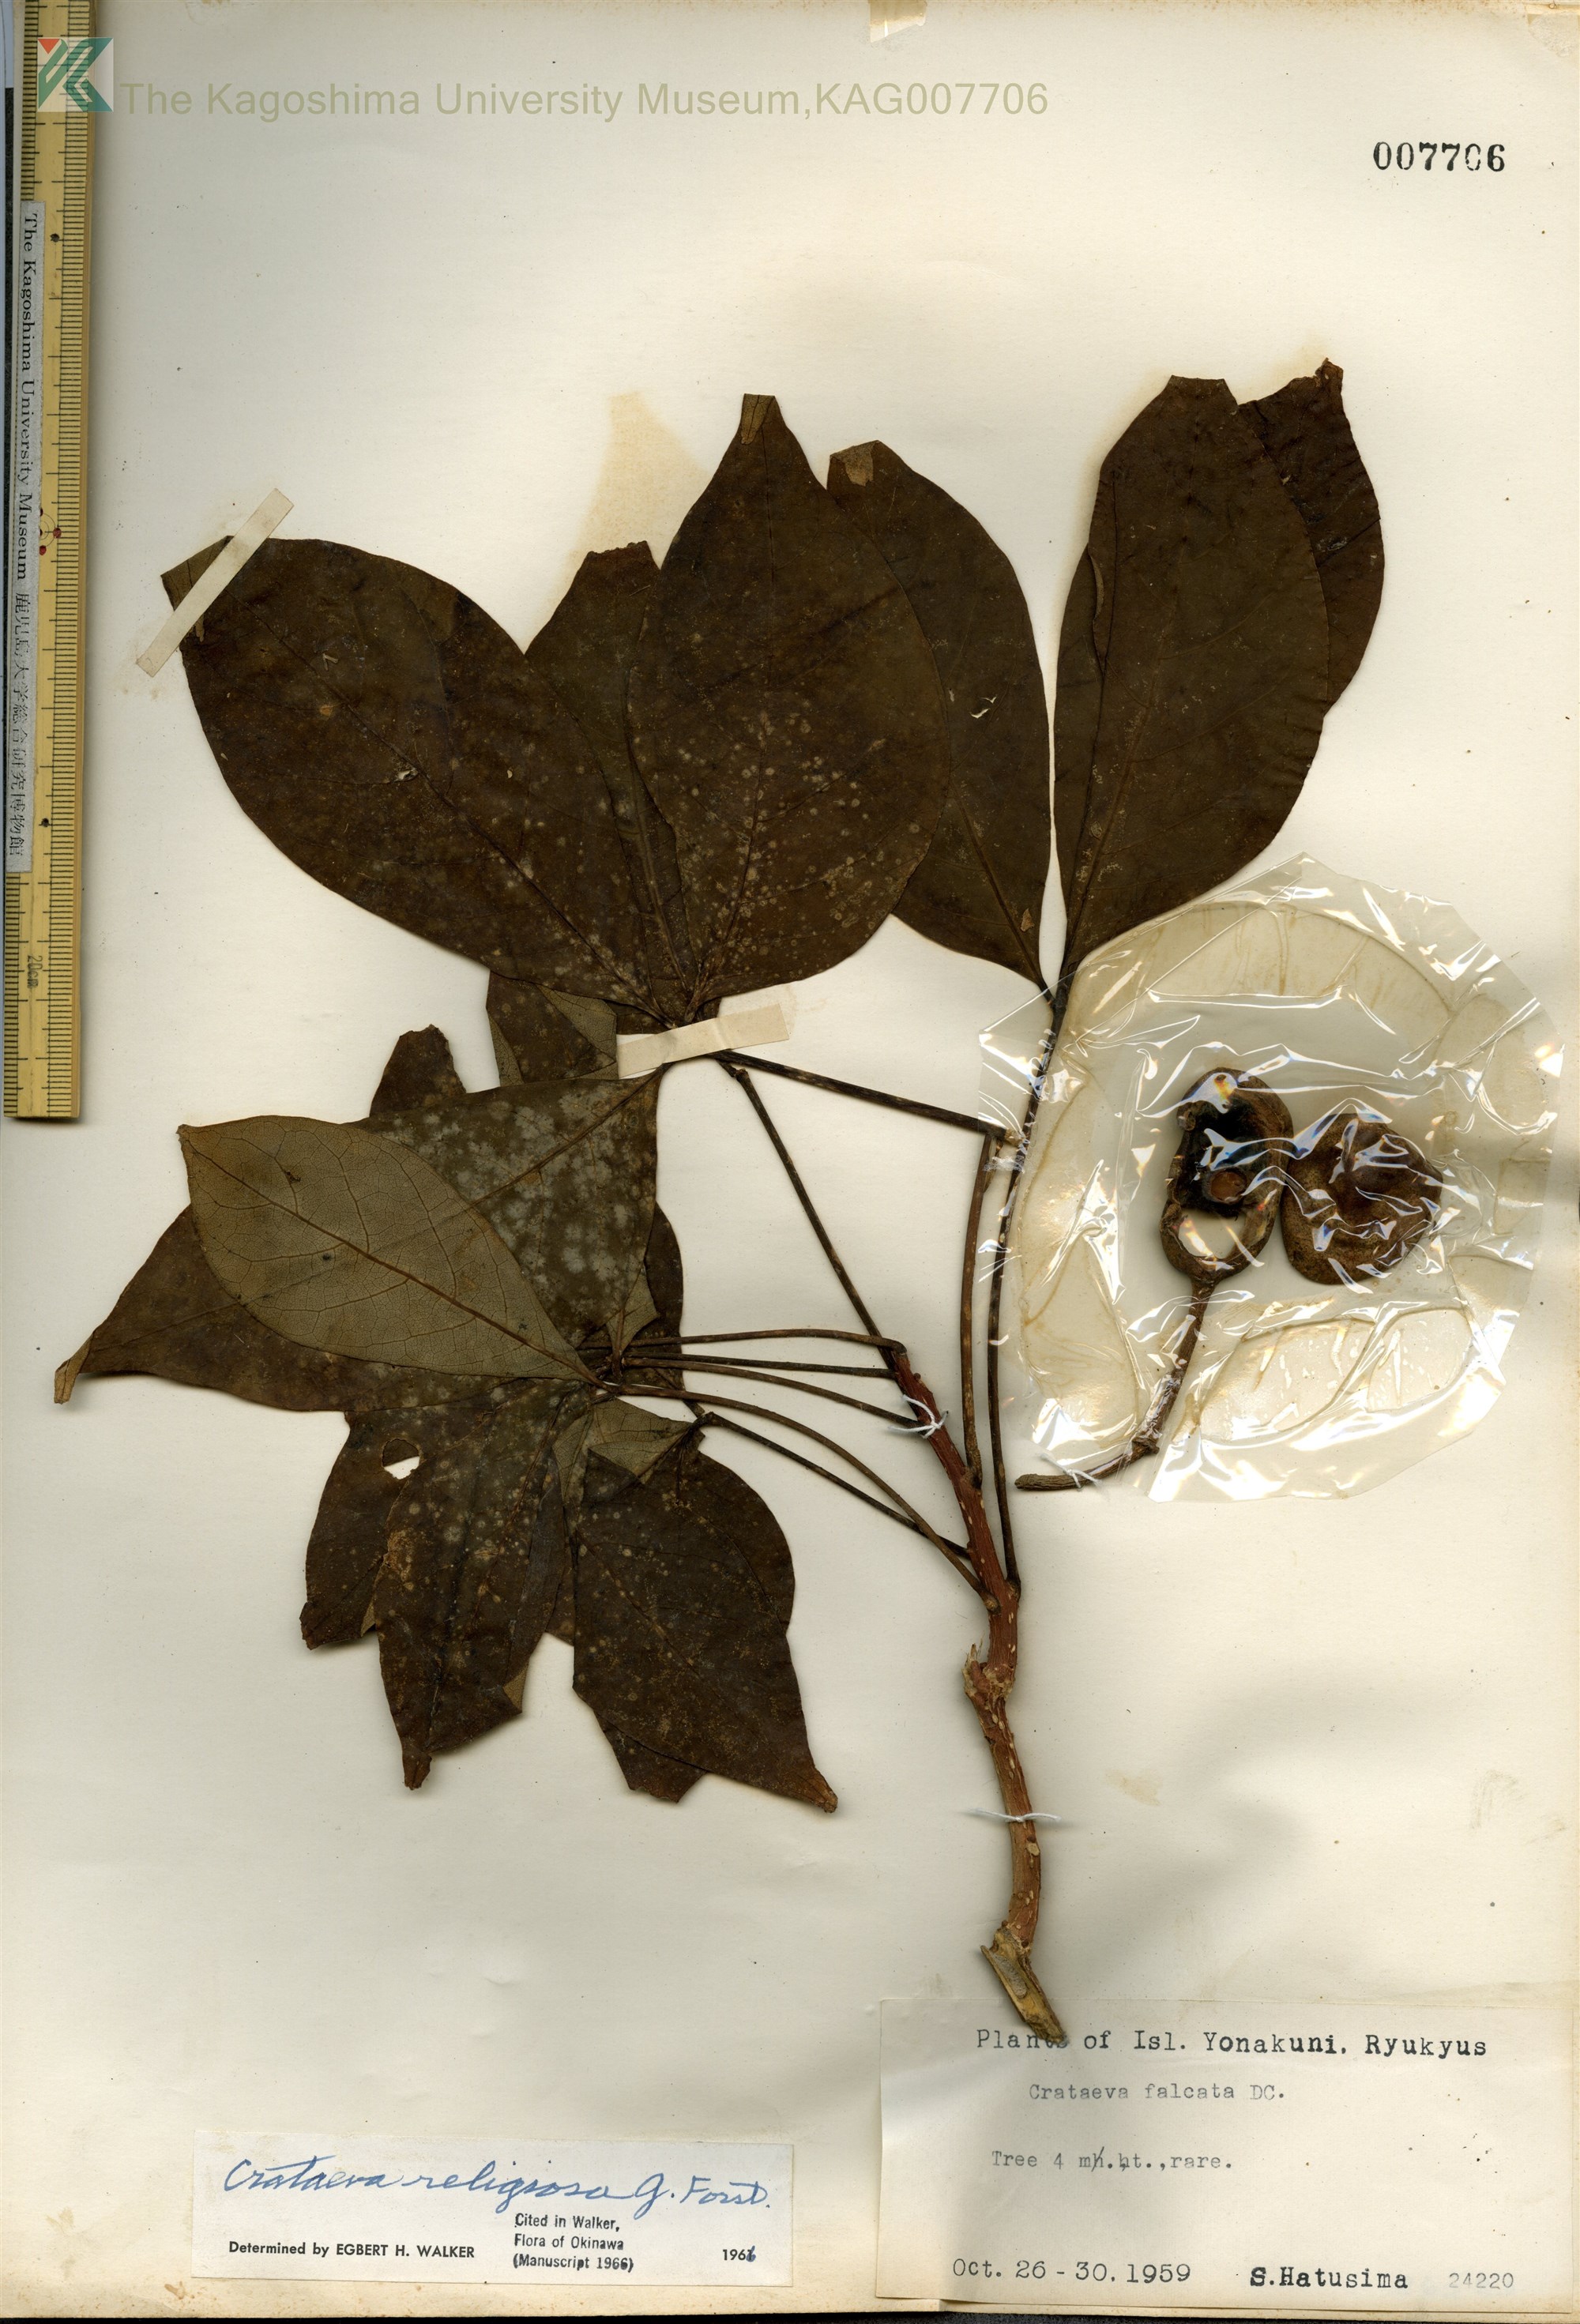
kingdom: Plantae
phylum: Tracheophyta
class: Magnoliopsida
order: Brassicales
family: Capparaceae
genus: Crateva
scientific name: Crateva formosensis
